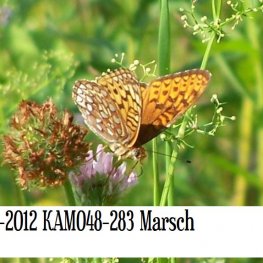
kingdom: Animalia
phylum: Arthropoda
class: Insecta
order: Lepidoptera
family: Nymphalidae
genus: Speyeria
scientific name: Speyeria atlantis
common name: Atlantis Fritillary
